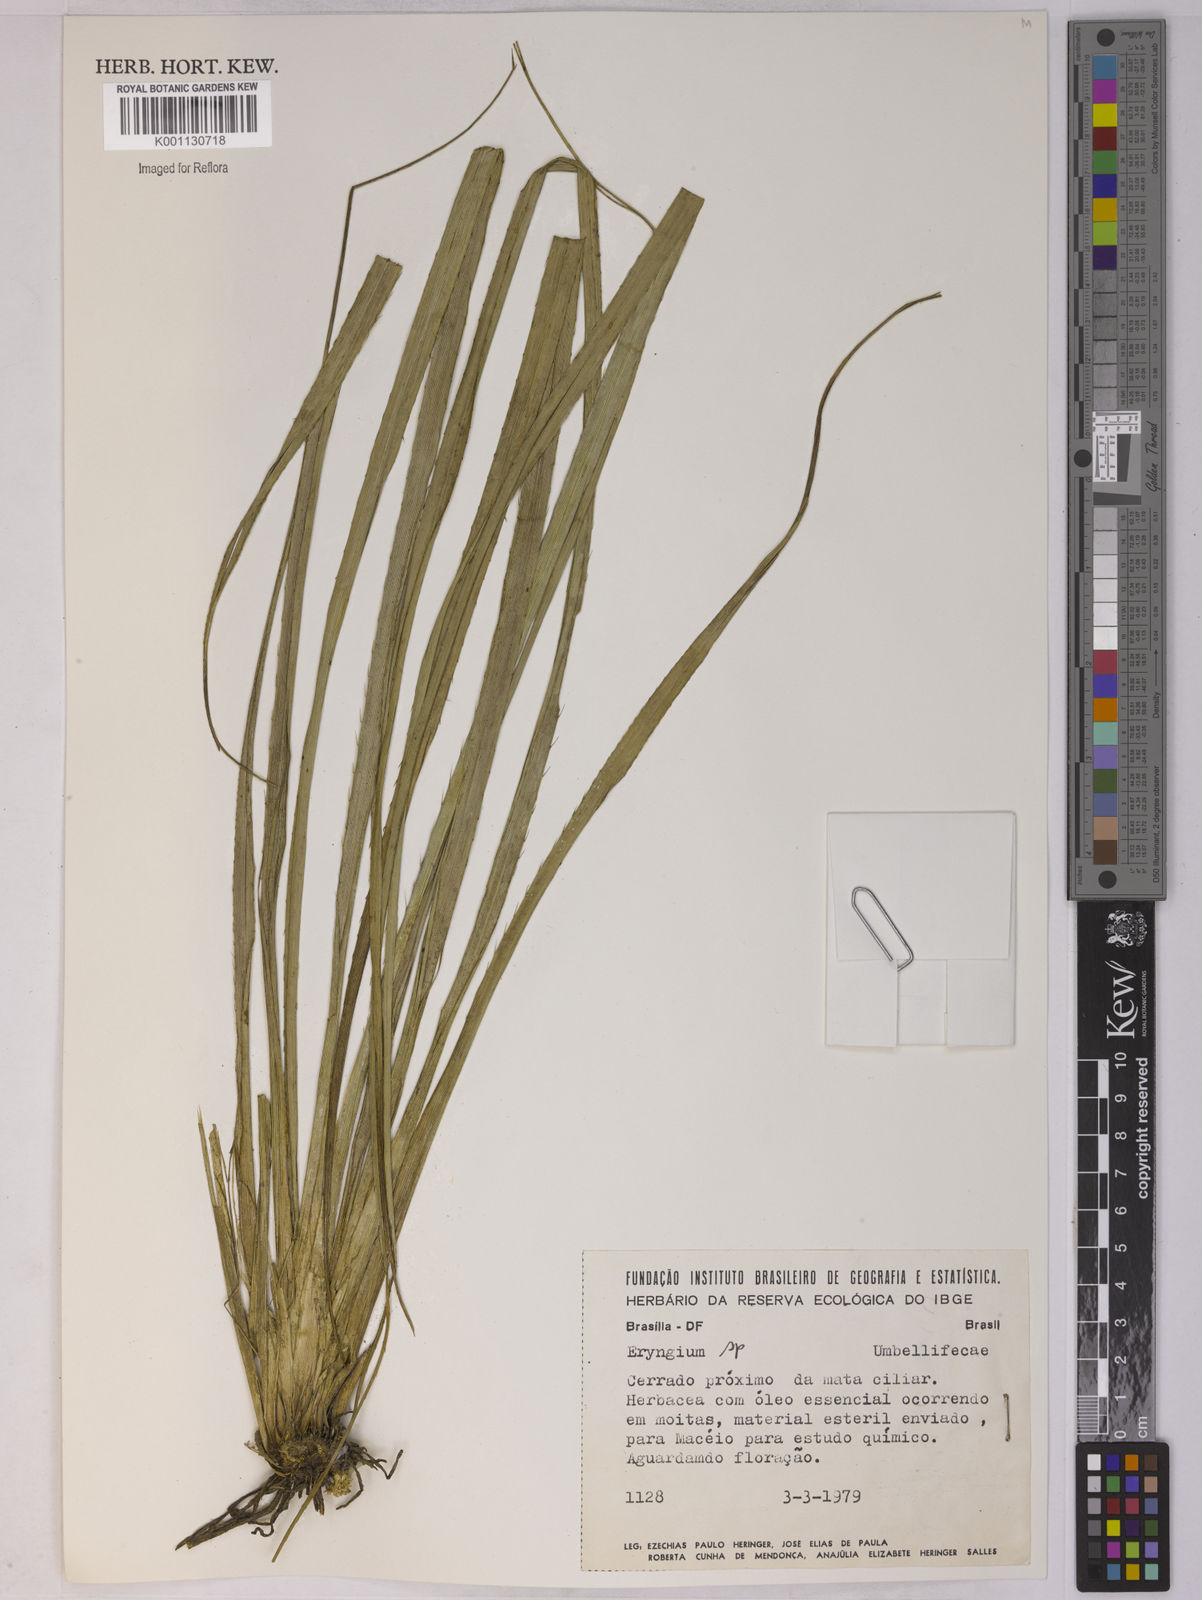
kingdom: Plantae
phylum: Tracheophyta
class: Magnoliopsida
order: Apiales
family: Apiaceae
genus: Eryngium
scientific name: Eryngium
